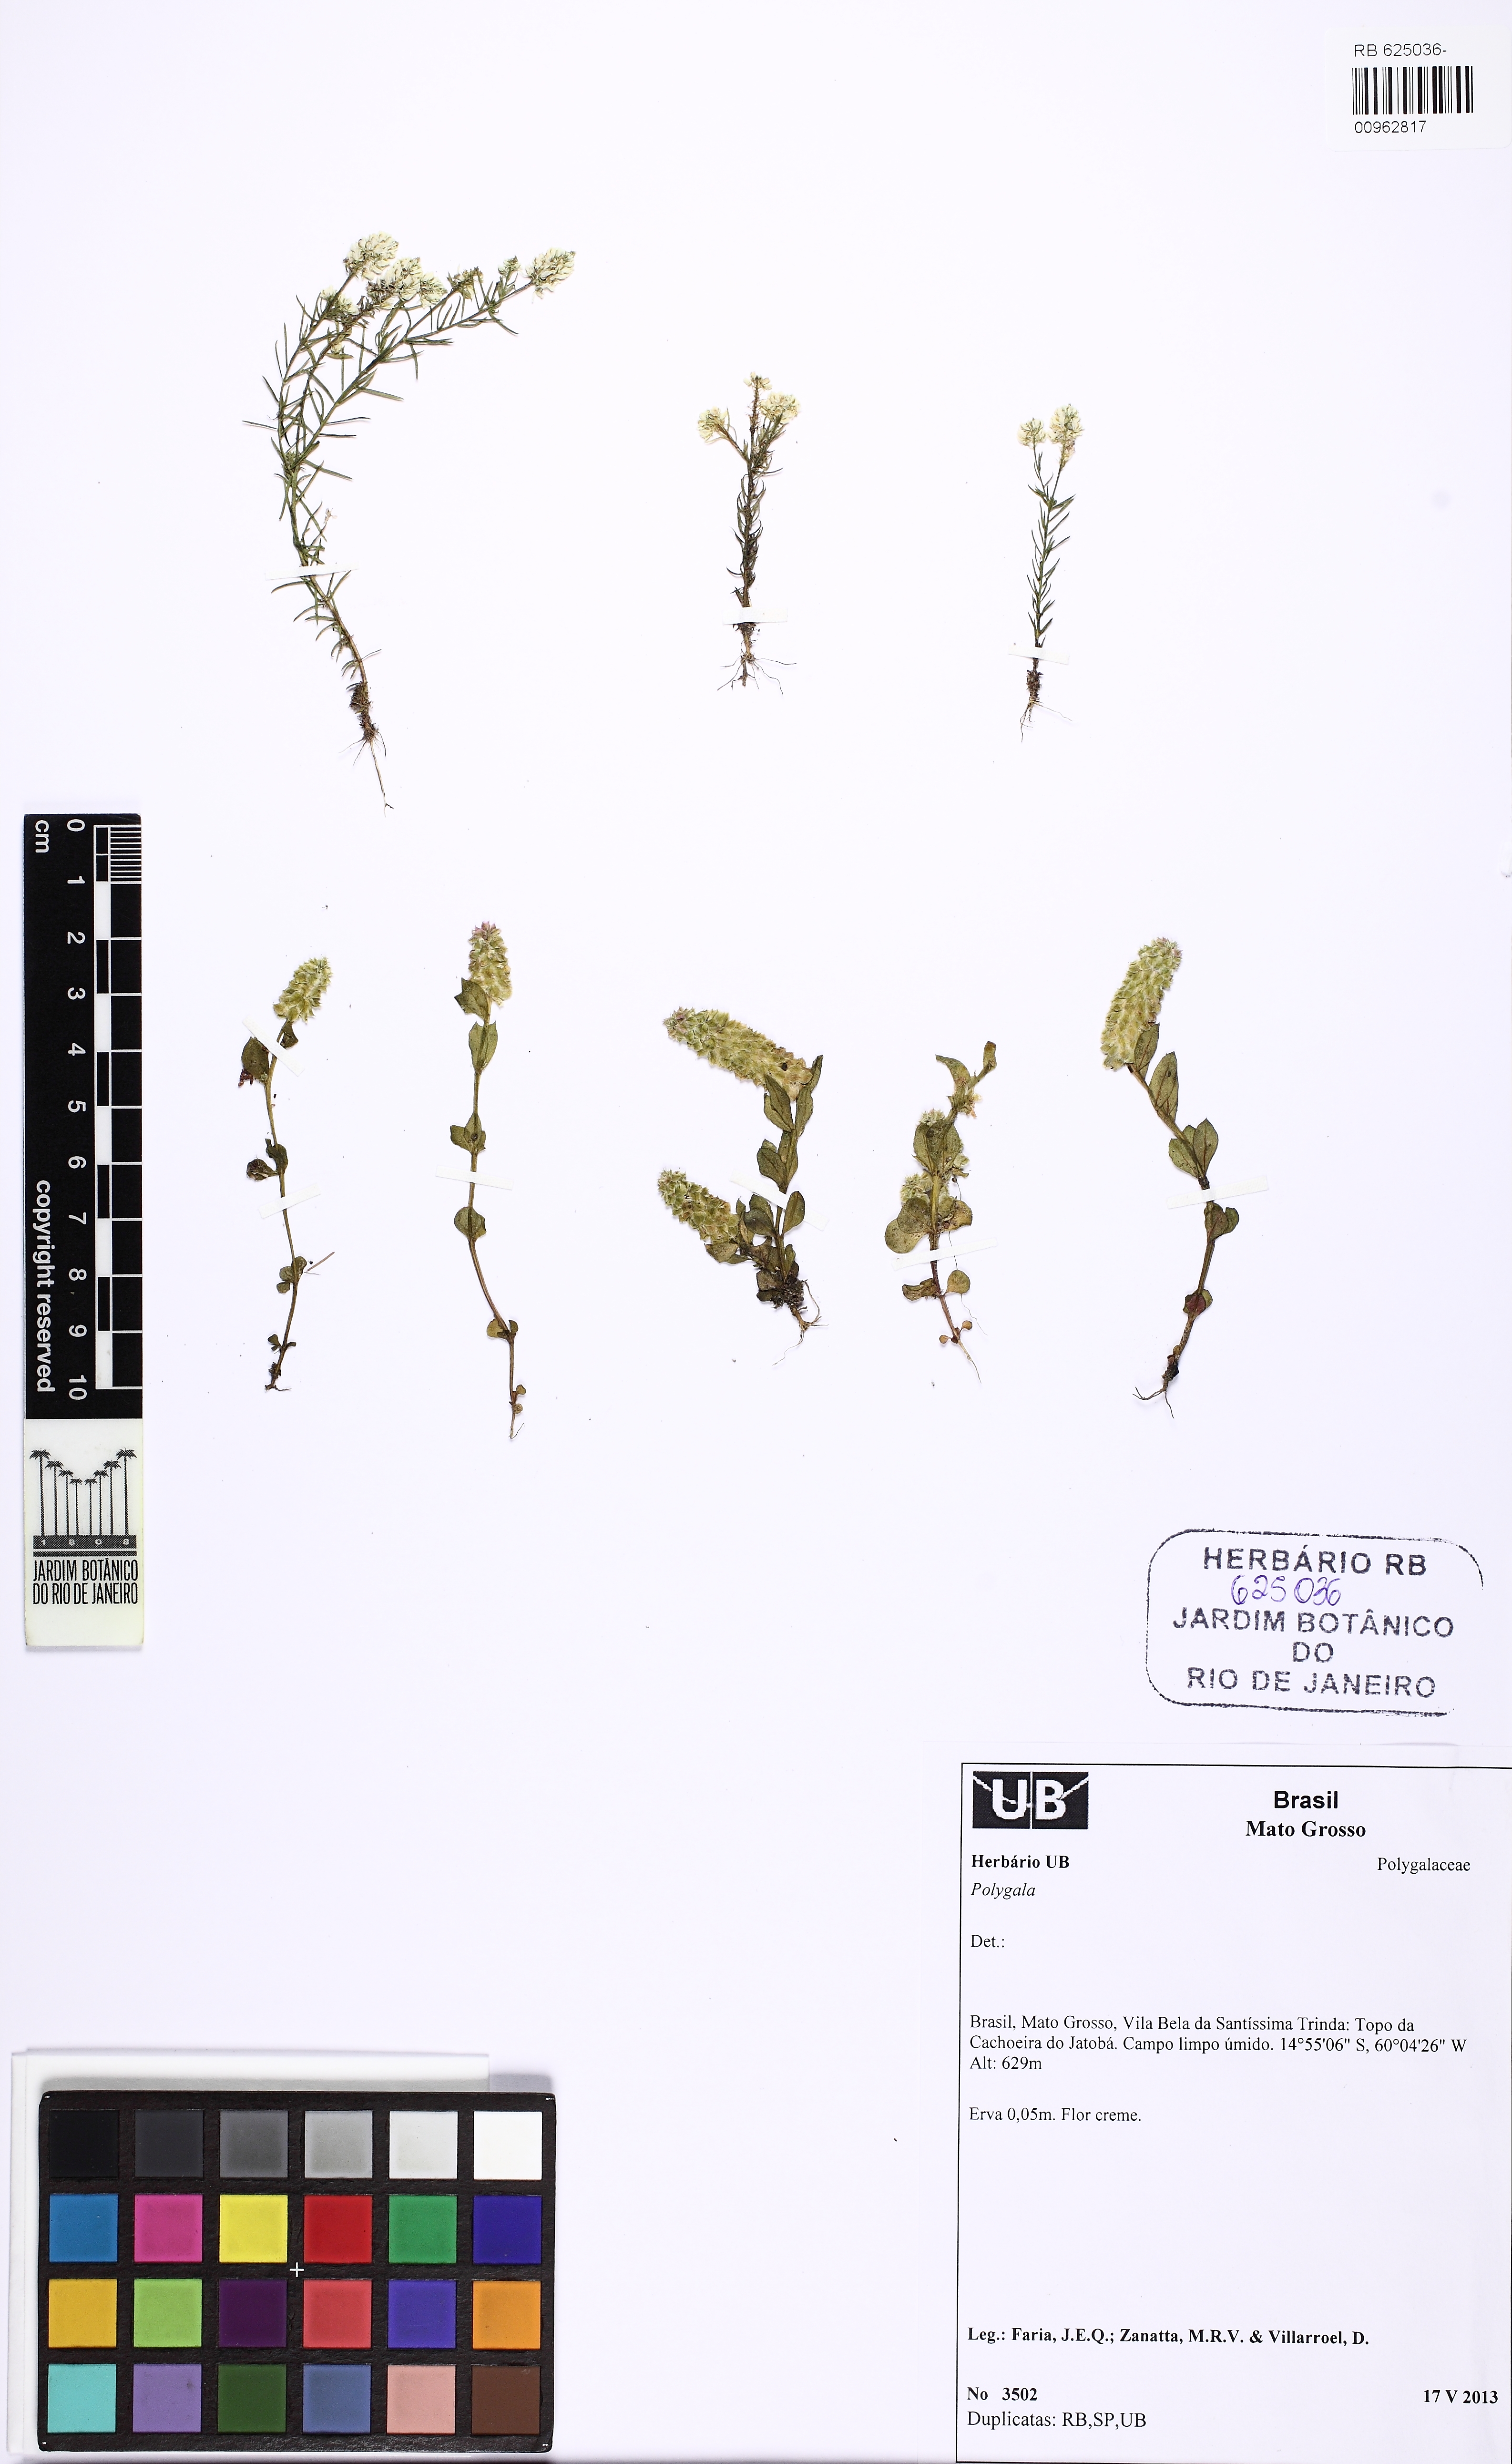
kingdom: Plantae
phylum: Tracheophyta
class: Magnoliopsida
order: Fabales
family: Polygalaceae
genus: Polygala
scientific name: Polygala timoutou
